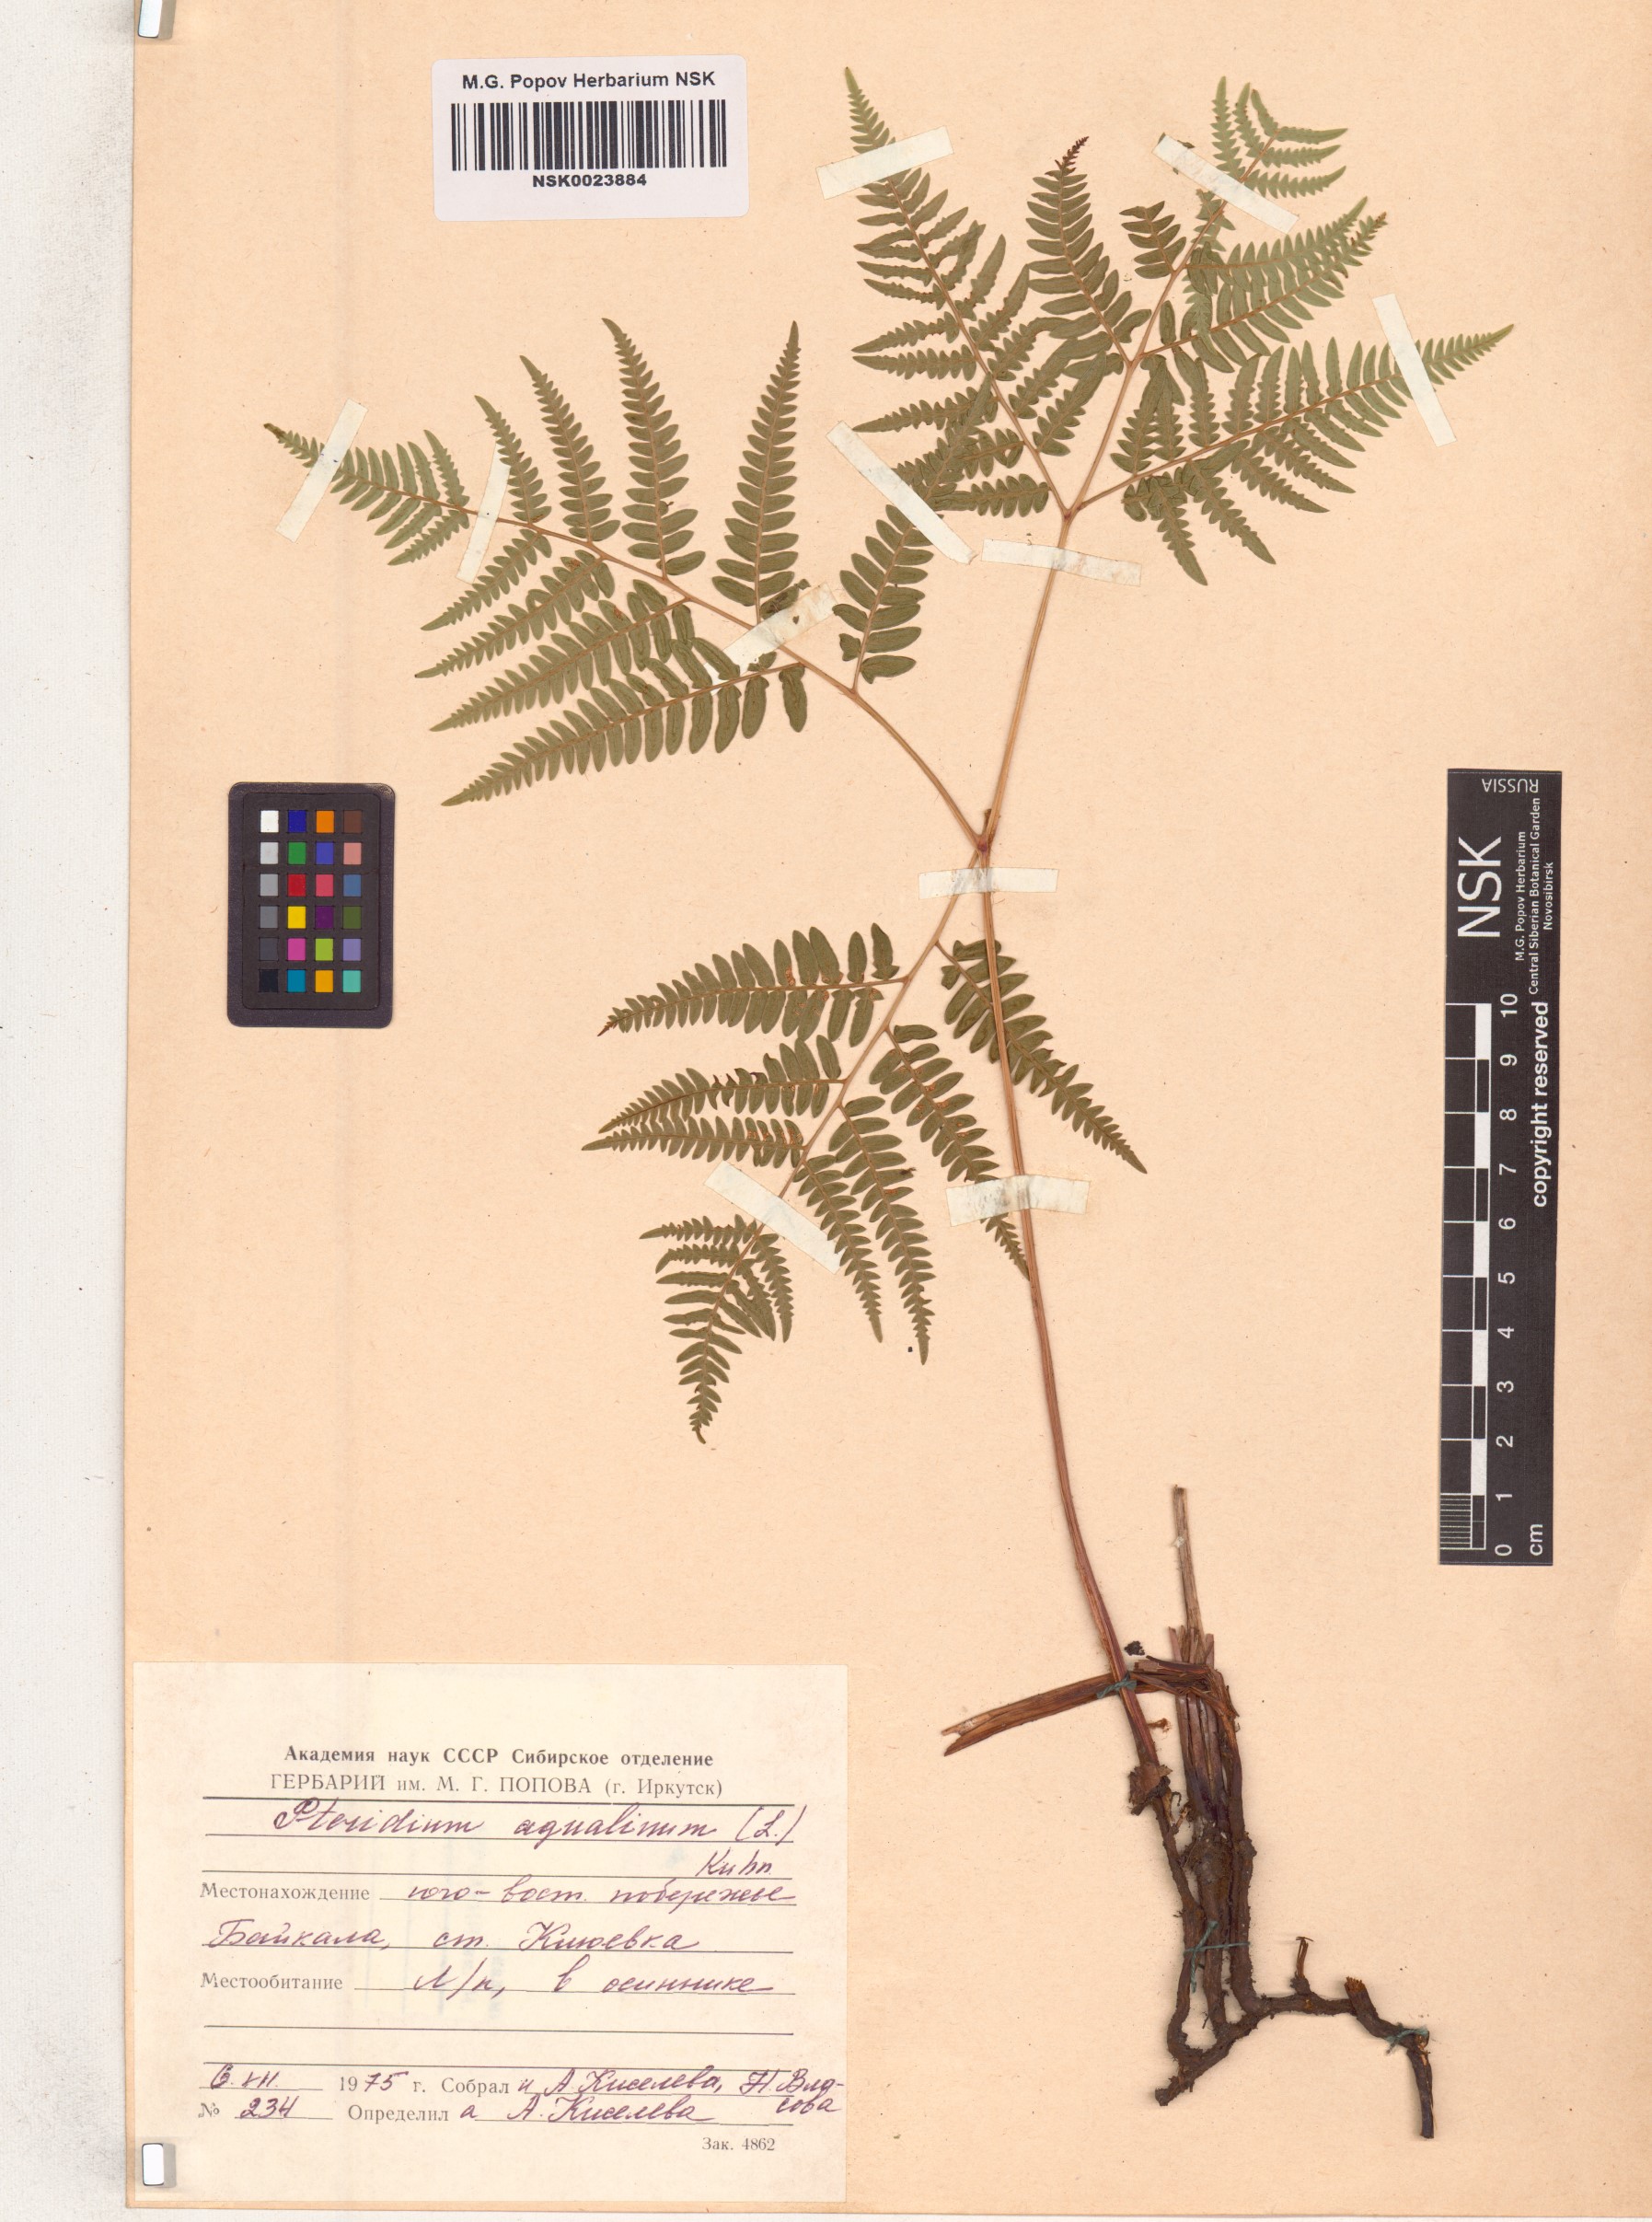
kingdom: Plantae
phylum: Tracheophyta
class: Polypodiopsida
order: Polypodiales
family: Dennstaedtiaceae
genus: Pteridium
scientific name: Pteridium aquilinum
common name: Bracken
